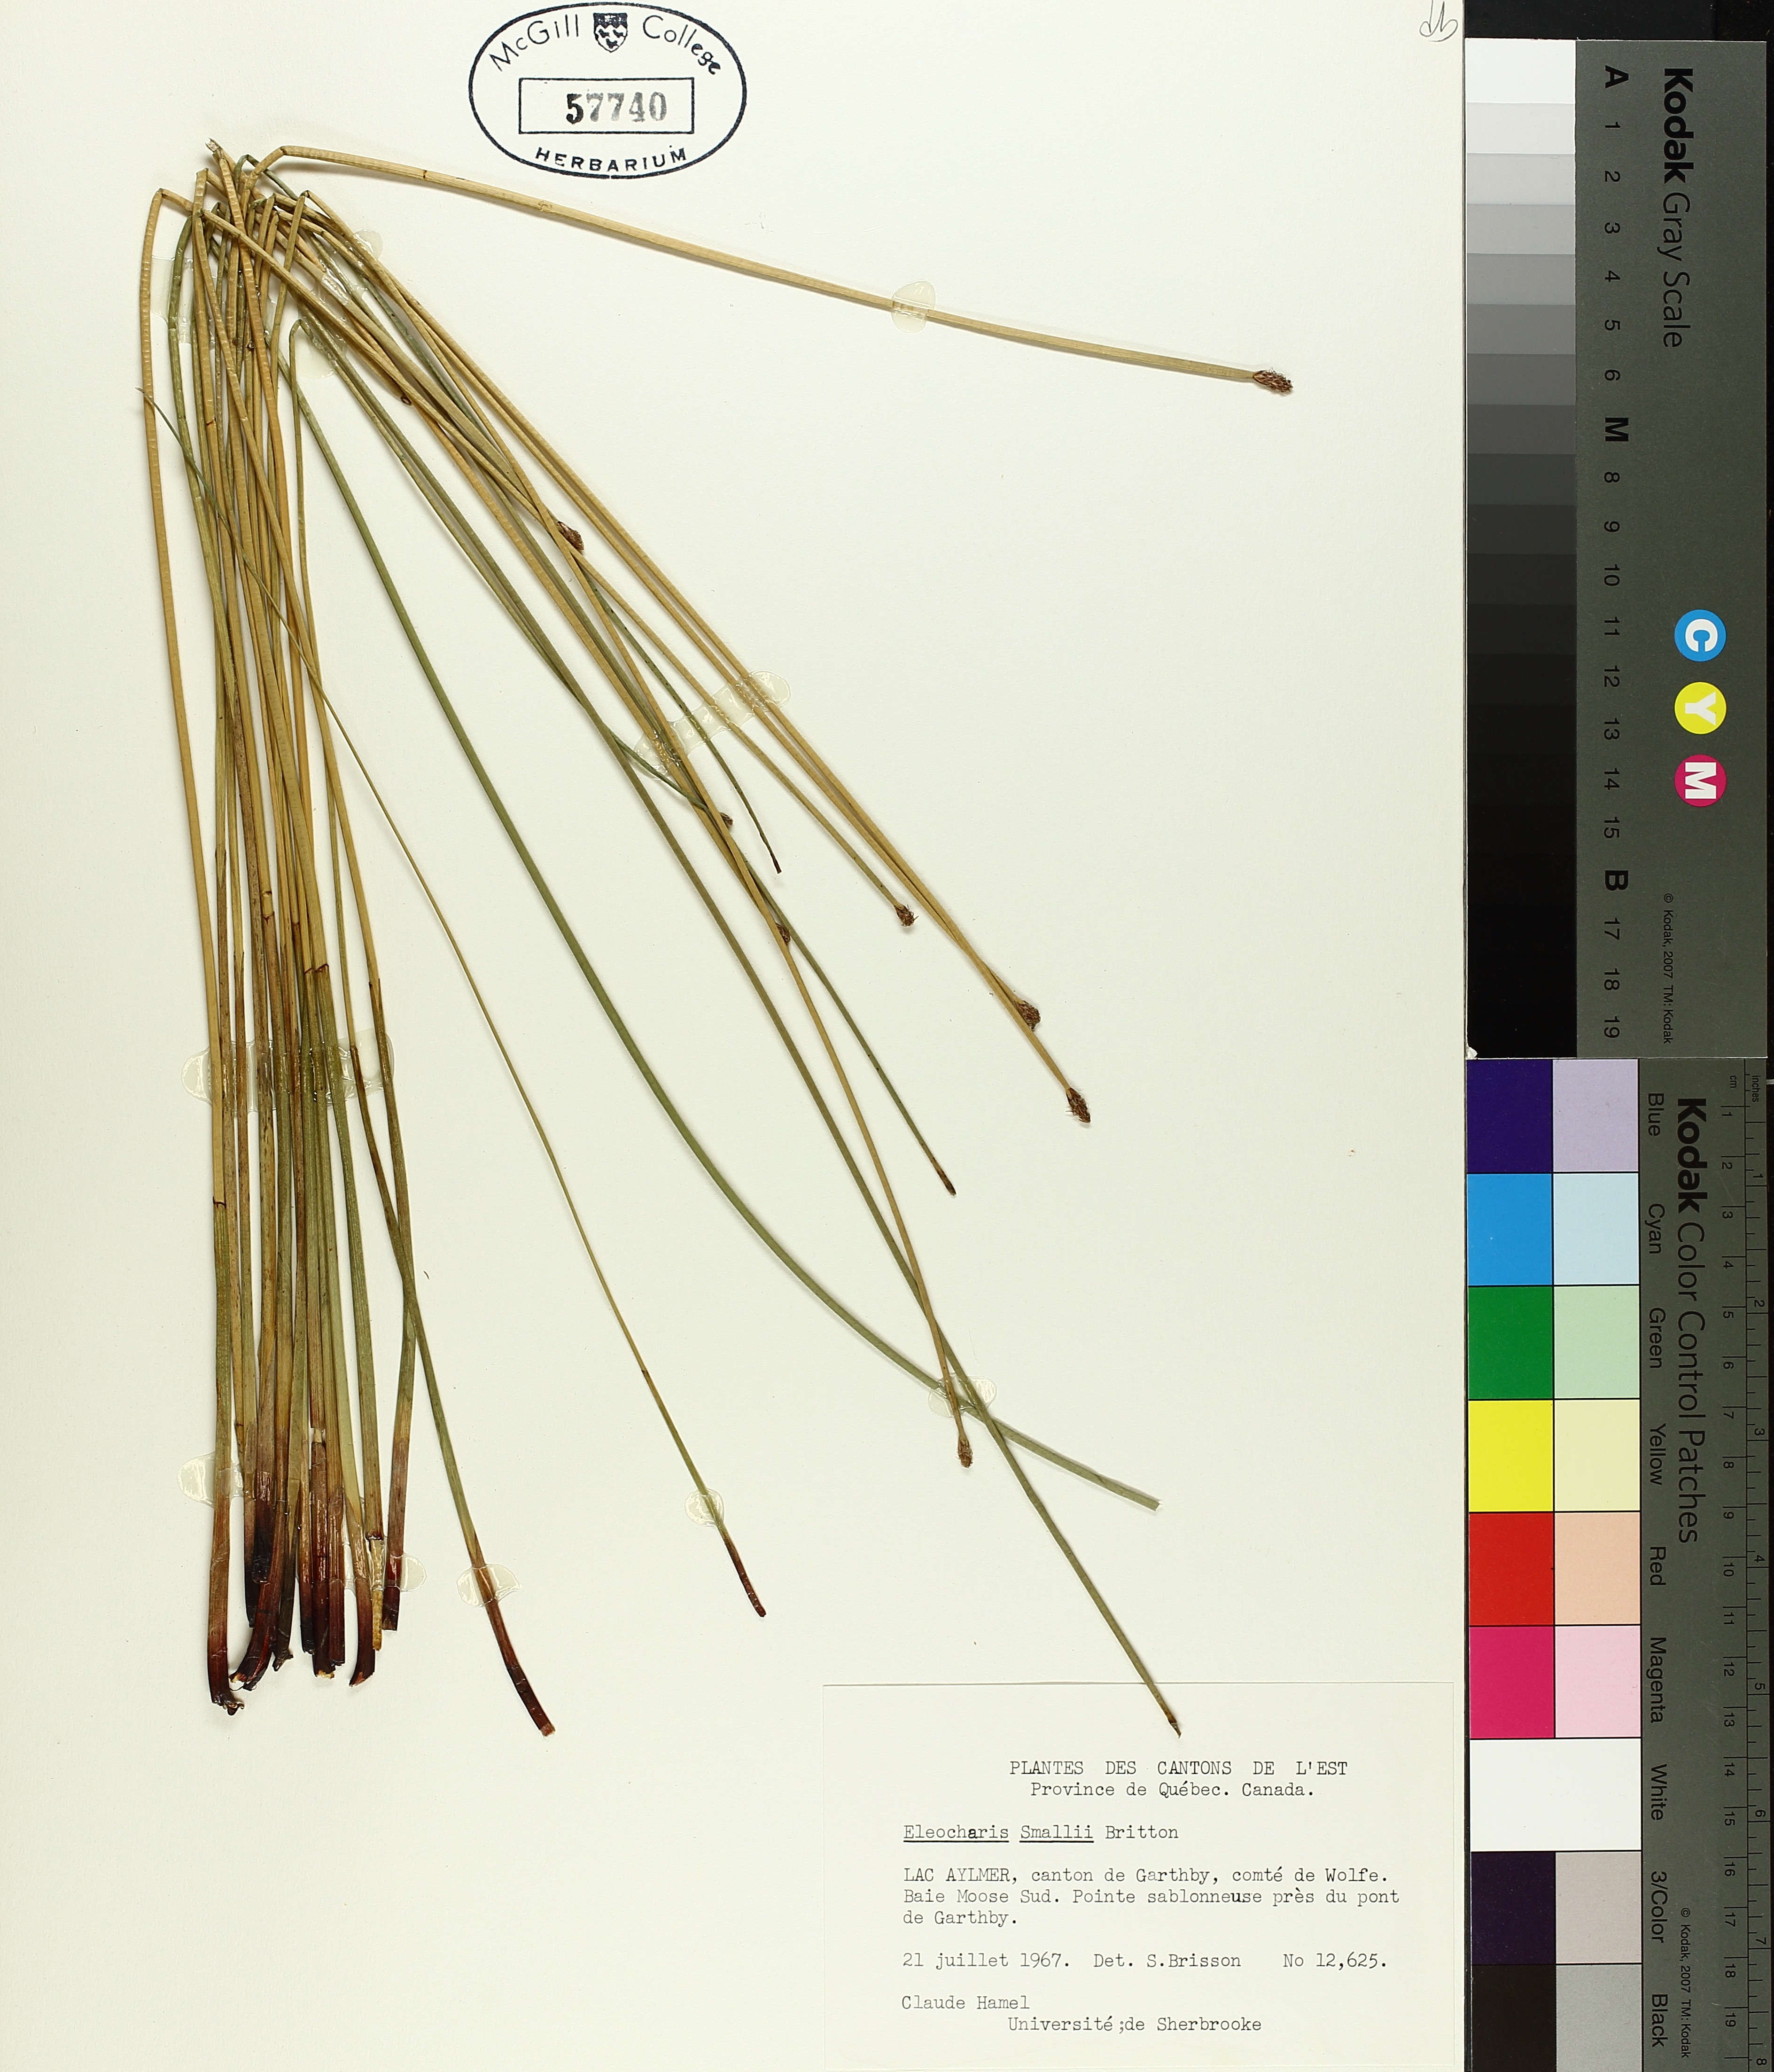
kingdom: Plantae
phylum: Tracheophyta
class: Liliopsida
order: Poales
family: Cyperaceae
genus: Eleocharis
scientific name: Eleocharis palustris
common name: Common spike-rush
